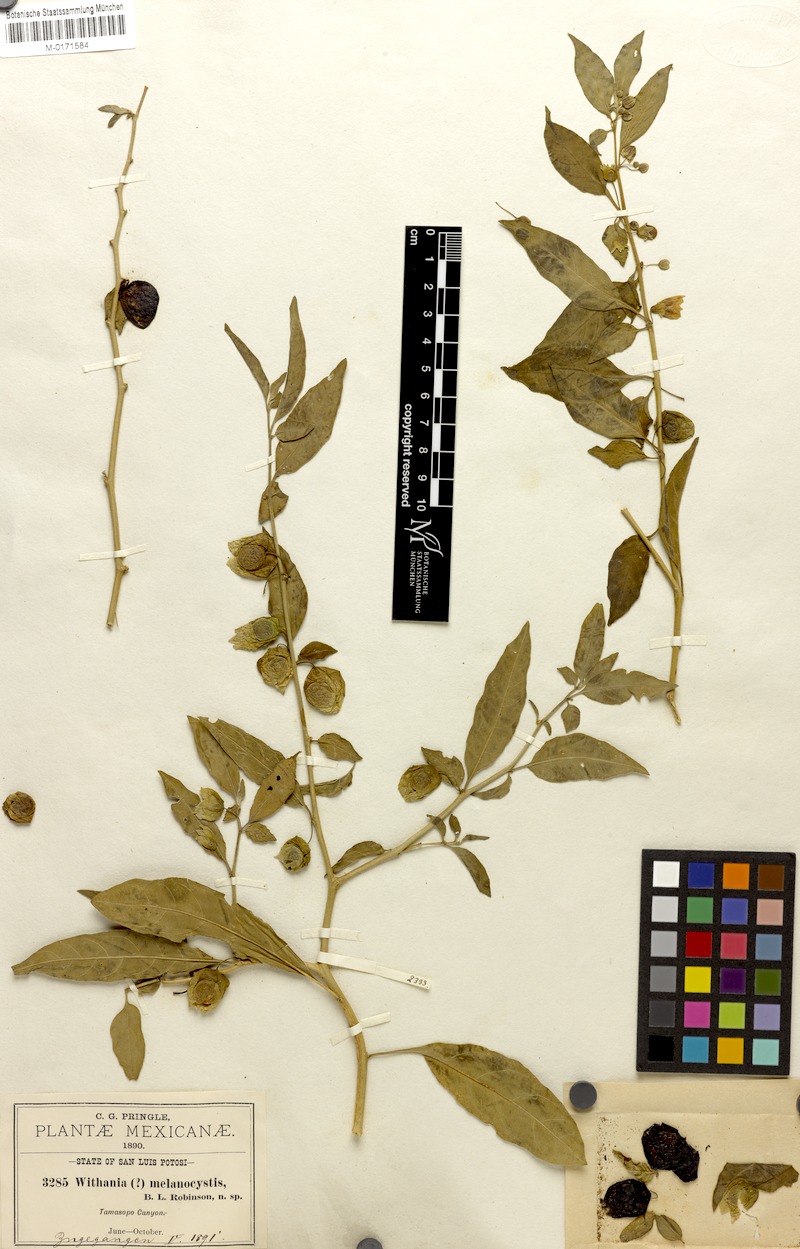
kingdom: Plantae
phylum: Tracheophyta
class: Magnoliopsida
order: Solanales
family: Solanaceae
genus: Physalis
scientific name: Physalis melanocystis
